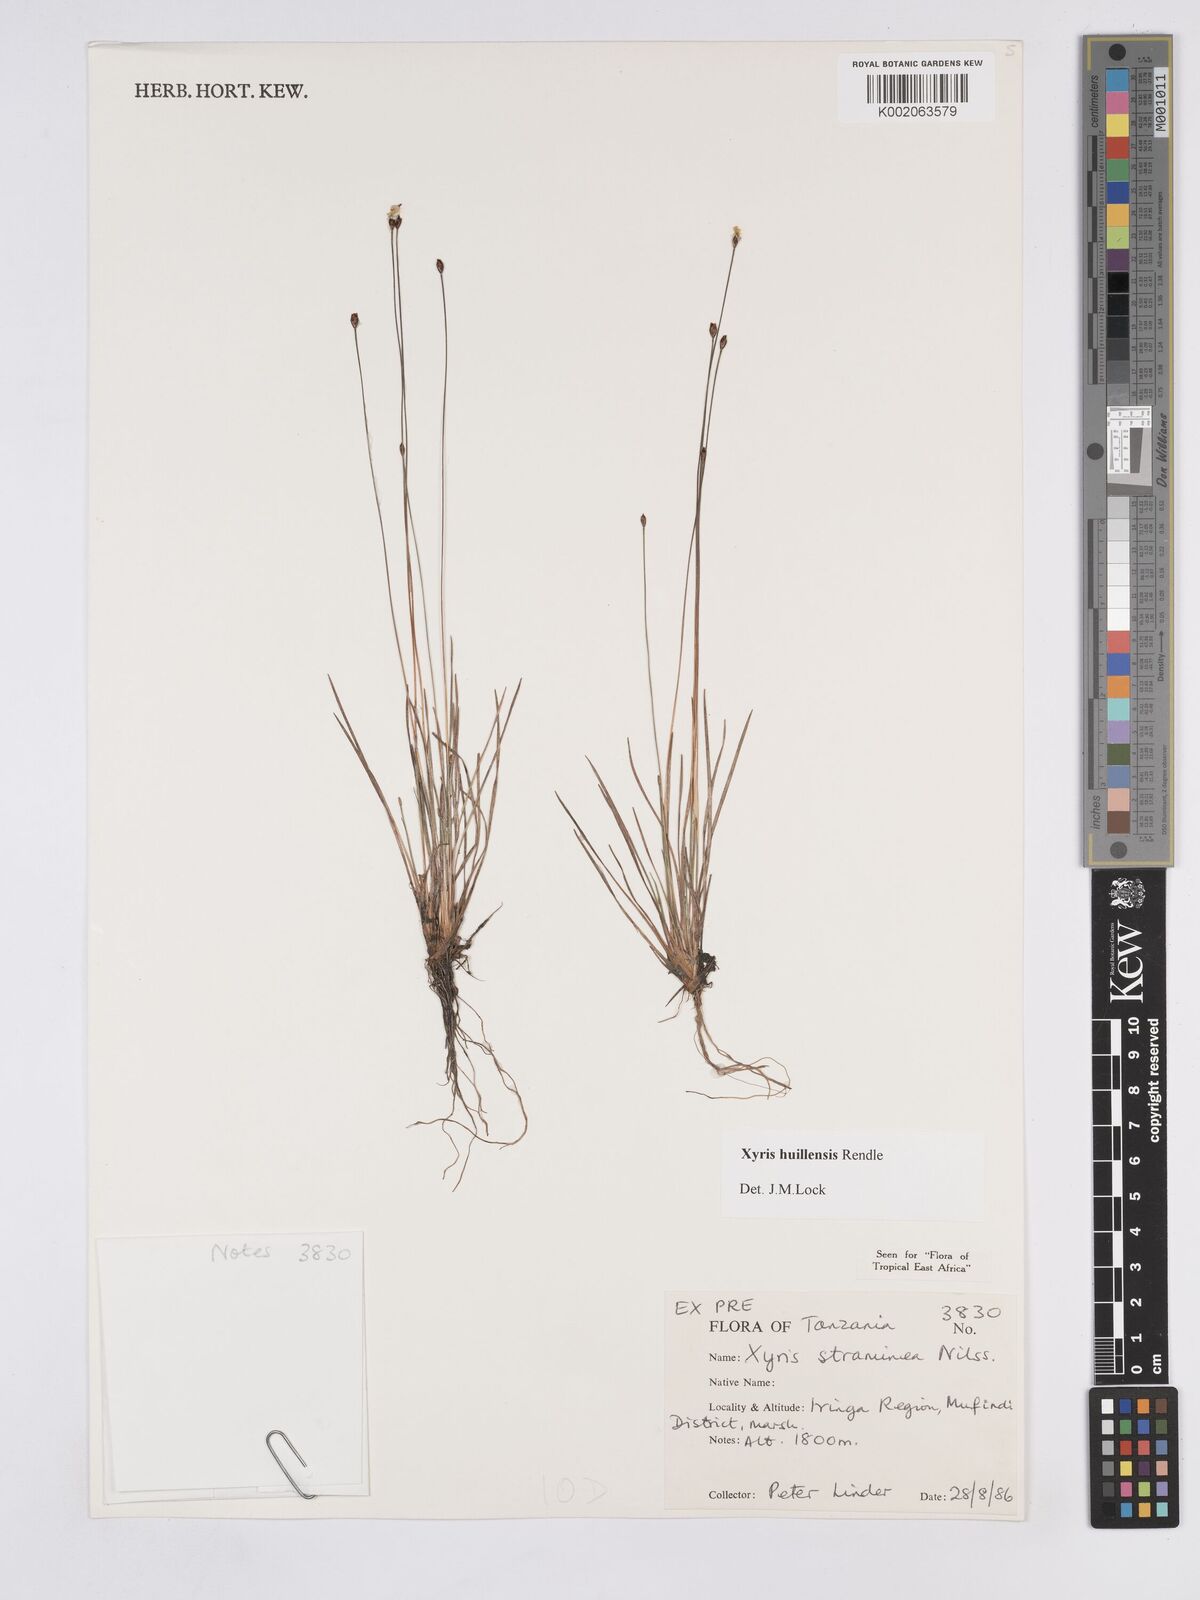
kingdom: Plantae
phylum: Tracheophyta
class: Liliopsida
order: Poales
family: Xyridaceae
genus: Xyris
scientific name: Xyris huillensis
